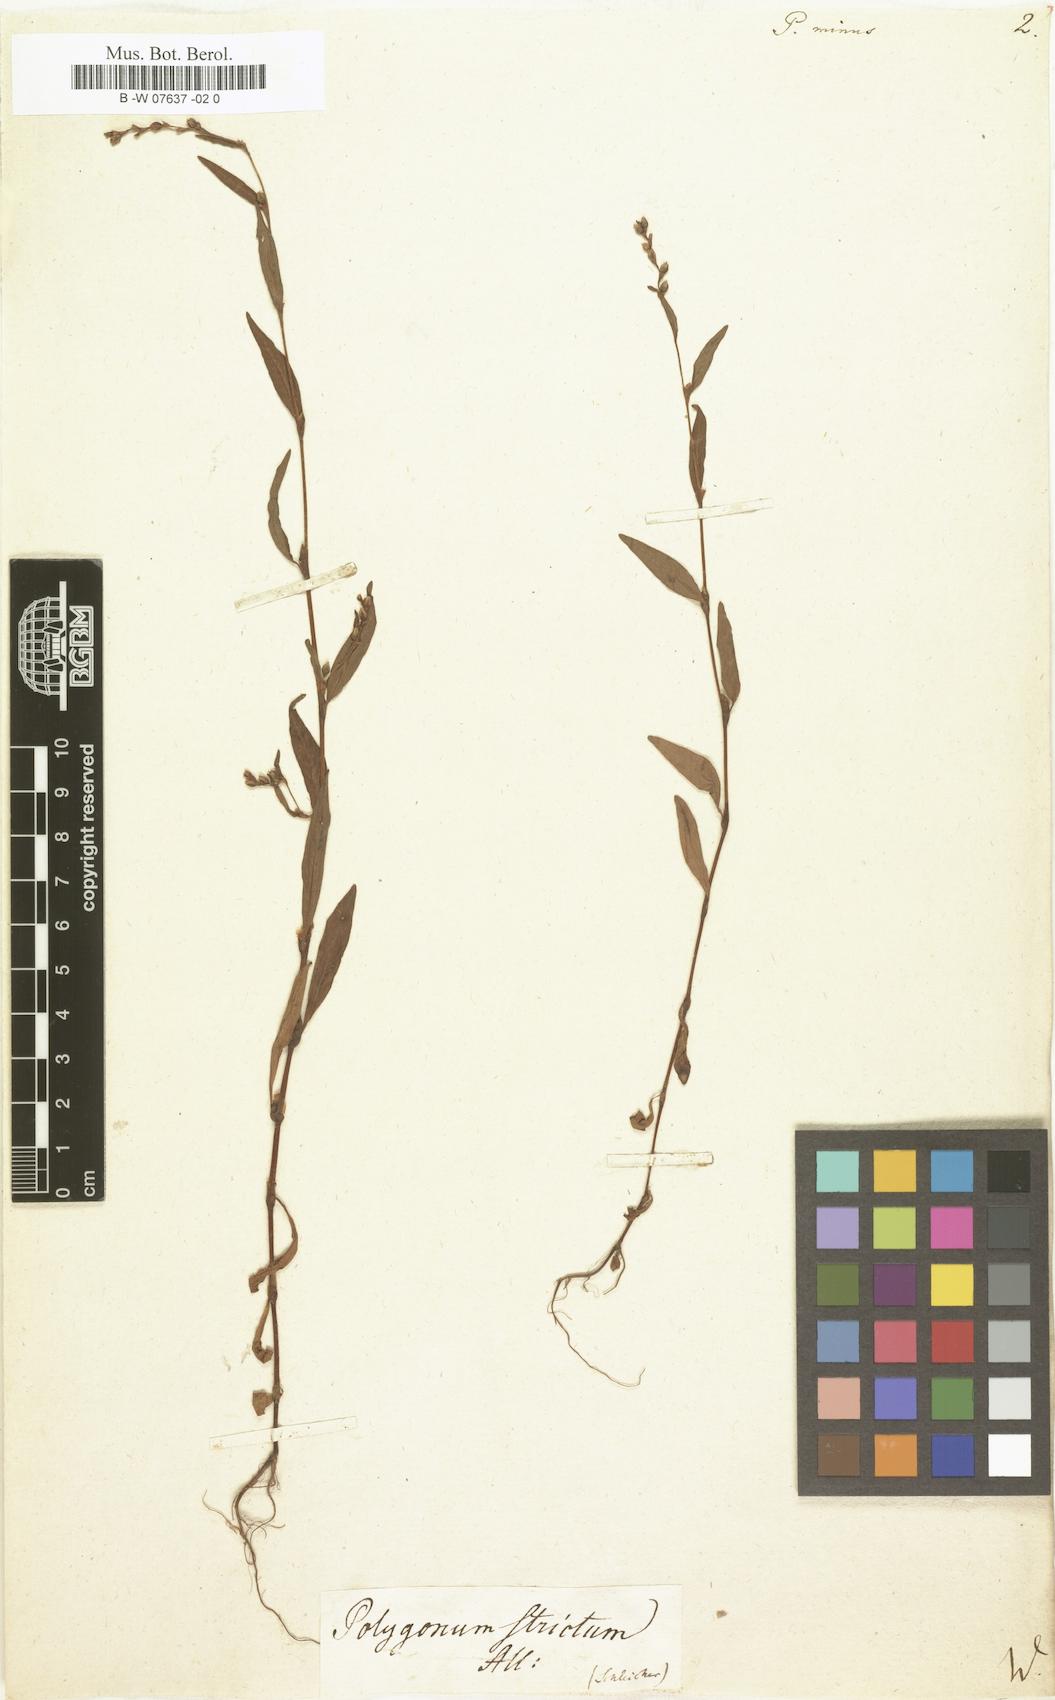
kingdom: Plantae
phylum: Tracheophyta
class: Magnoliopsida
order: Caryophyllales
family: Polygonaceae
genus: Persicaria
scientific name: Persicaria
